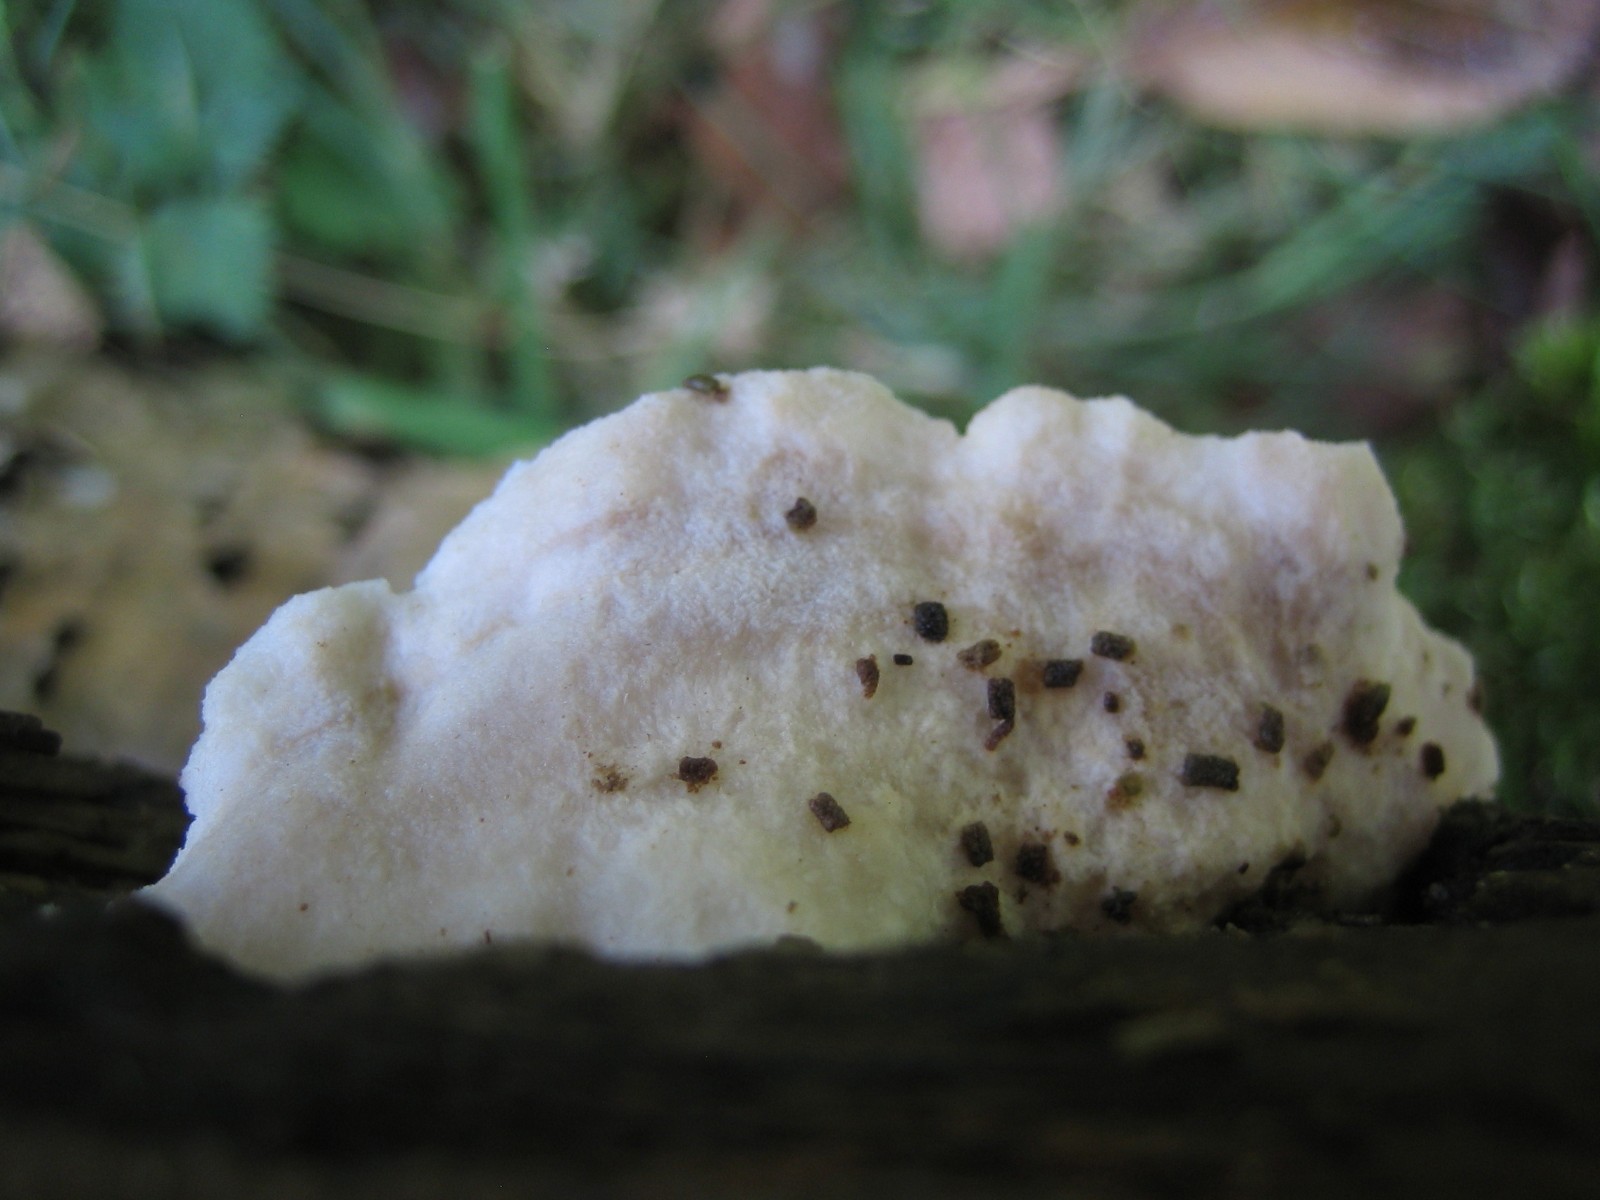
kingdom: Fungi
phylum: Basidiomycota
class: Agaricomycetes
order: Polyporales
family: Fomitopsidaceae
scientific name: Fomitopsidaceae
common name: hovporesvampfamilien
